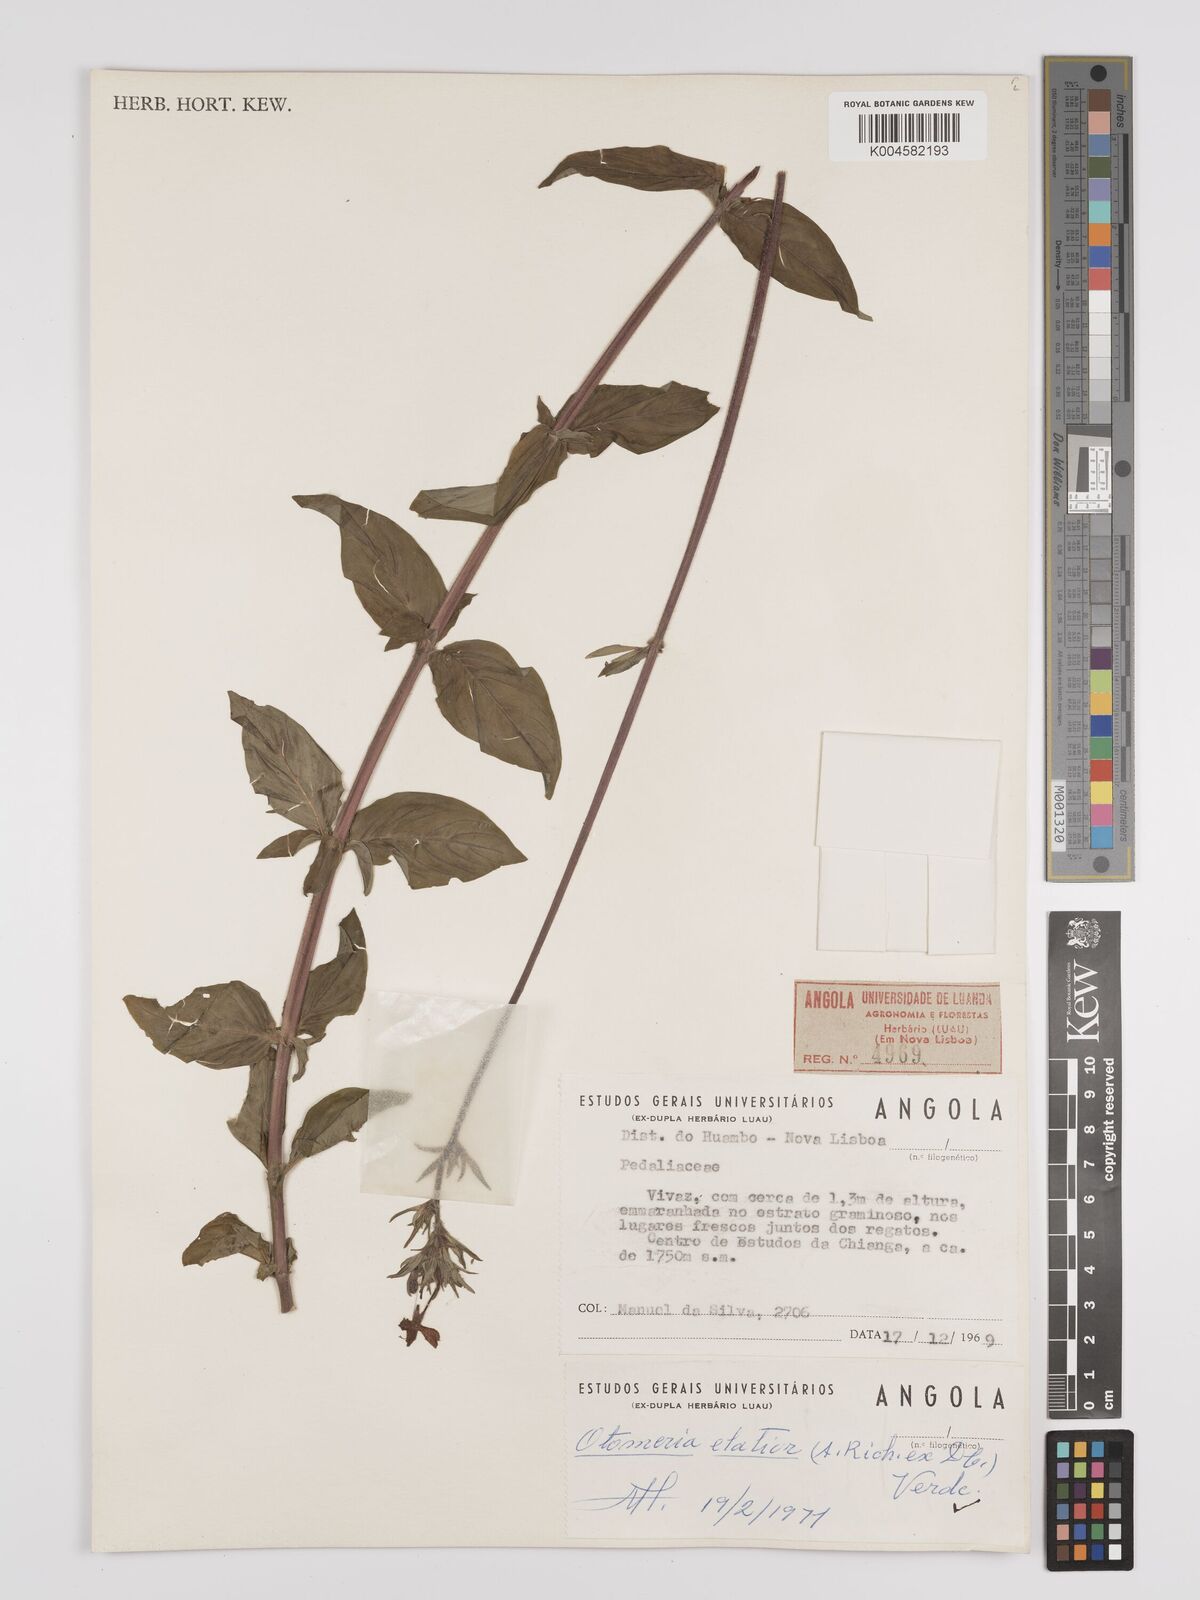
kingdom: Plantae
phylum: Tracheophyta
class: Magnoliopsida
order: Gentianales
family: Rubiaceae
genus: Otomeria
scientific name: Otomeria elatior
